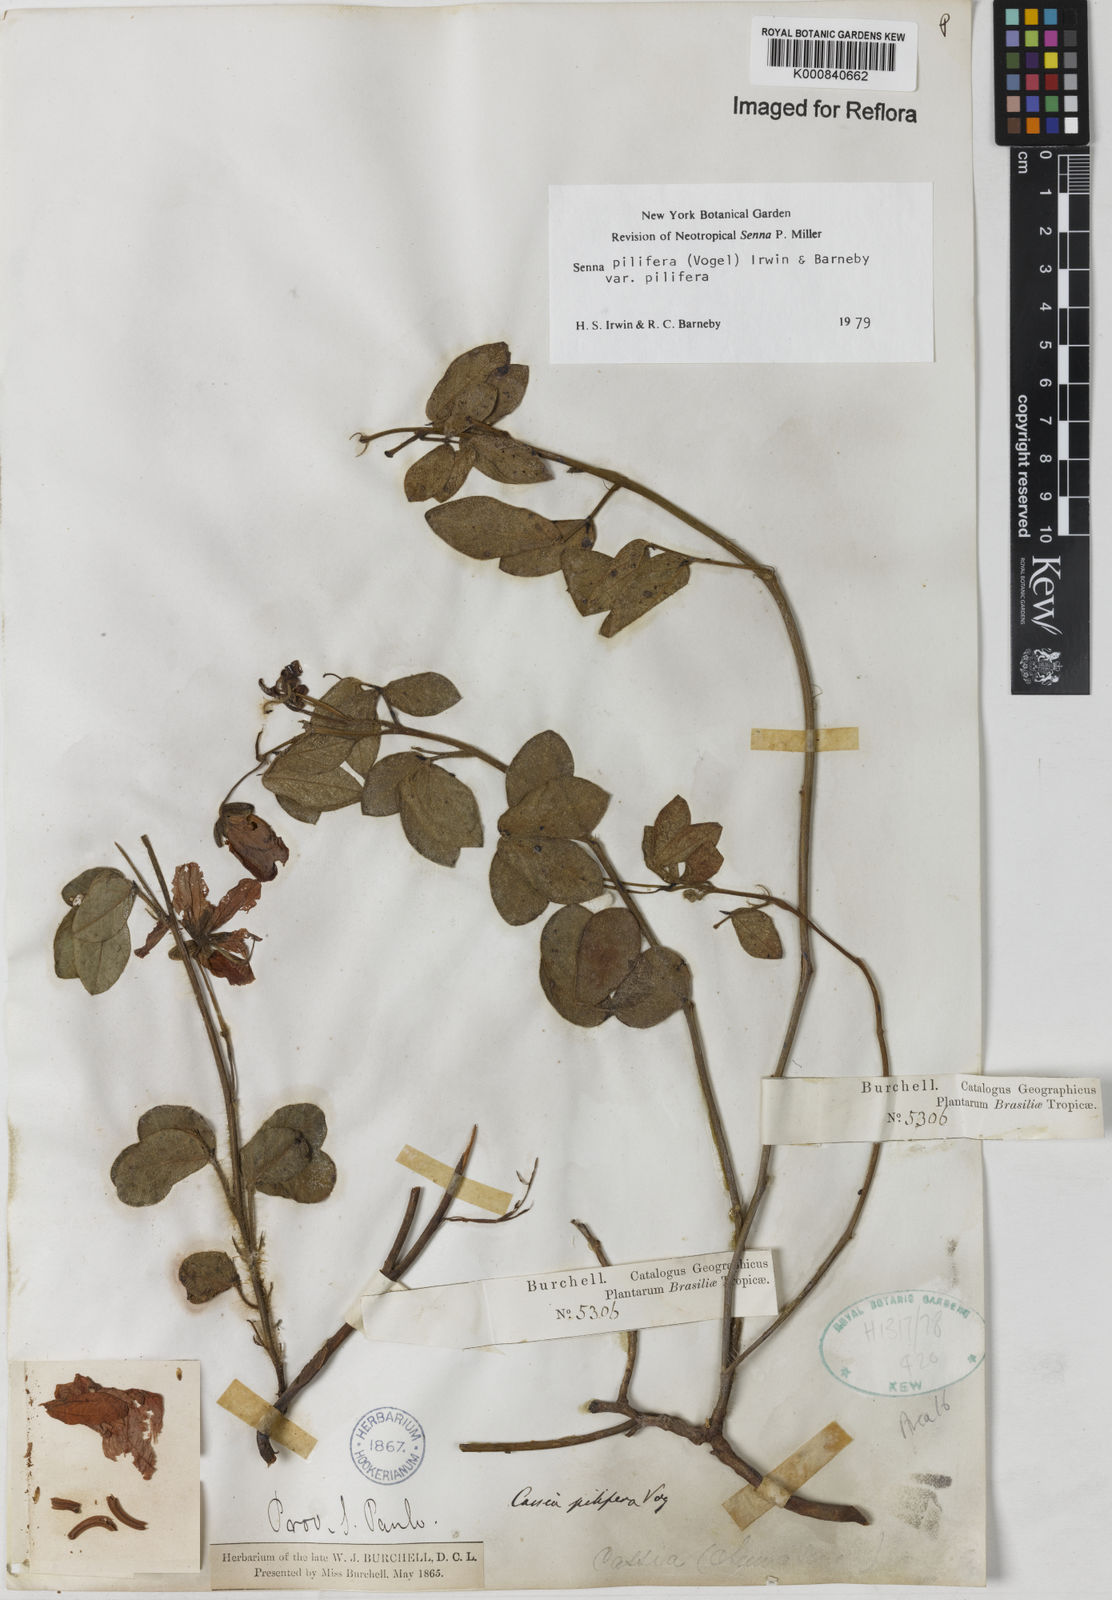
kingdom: Plantae
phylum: Tracheophyta
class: Magnoliopsida
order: Fabales
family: Fabaceae
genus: Senna
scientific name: Senna pilifera
